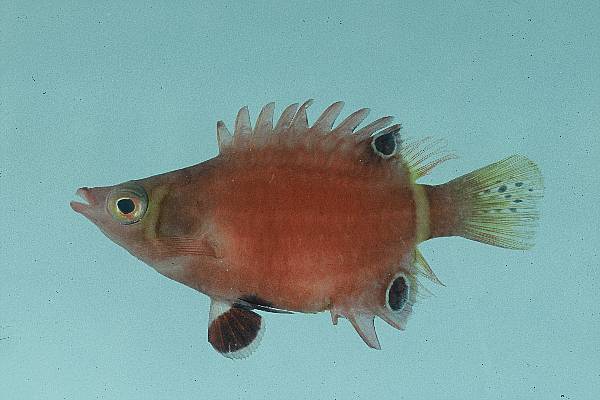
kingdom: Animalia
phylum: Chordata
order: Perciformes
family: Labridae
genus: Wetmorella
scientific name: Wetmorella nigropinnata
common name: Sharpnose wrasse
